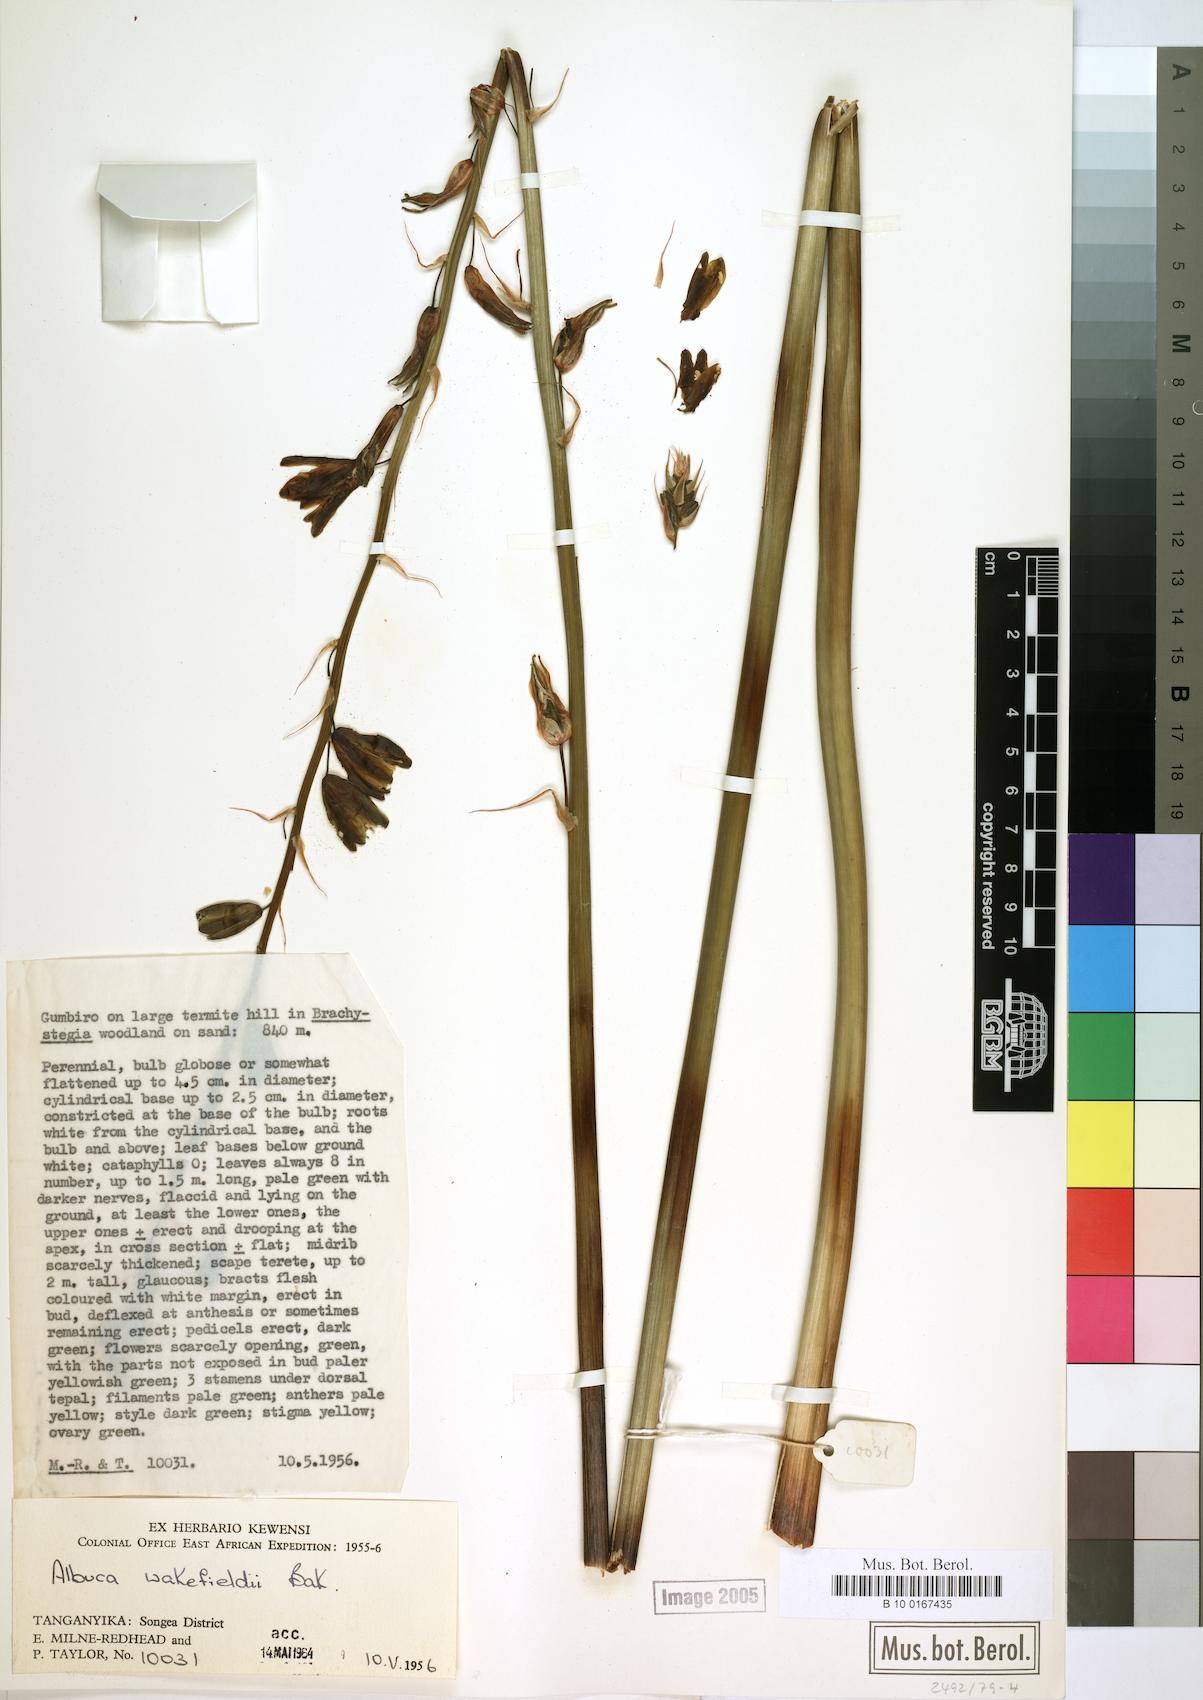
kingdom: Plantae
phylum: Tracheophyta
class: Liliopsida
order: Asparagales
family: Asparagaceae
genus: Albuca
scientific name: Albuca abyssinica
